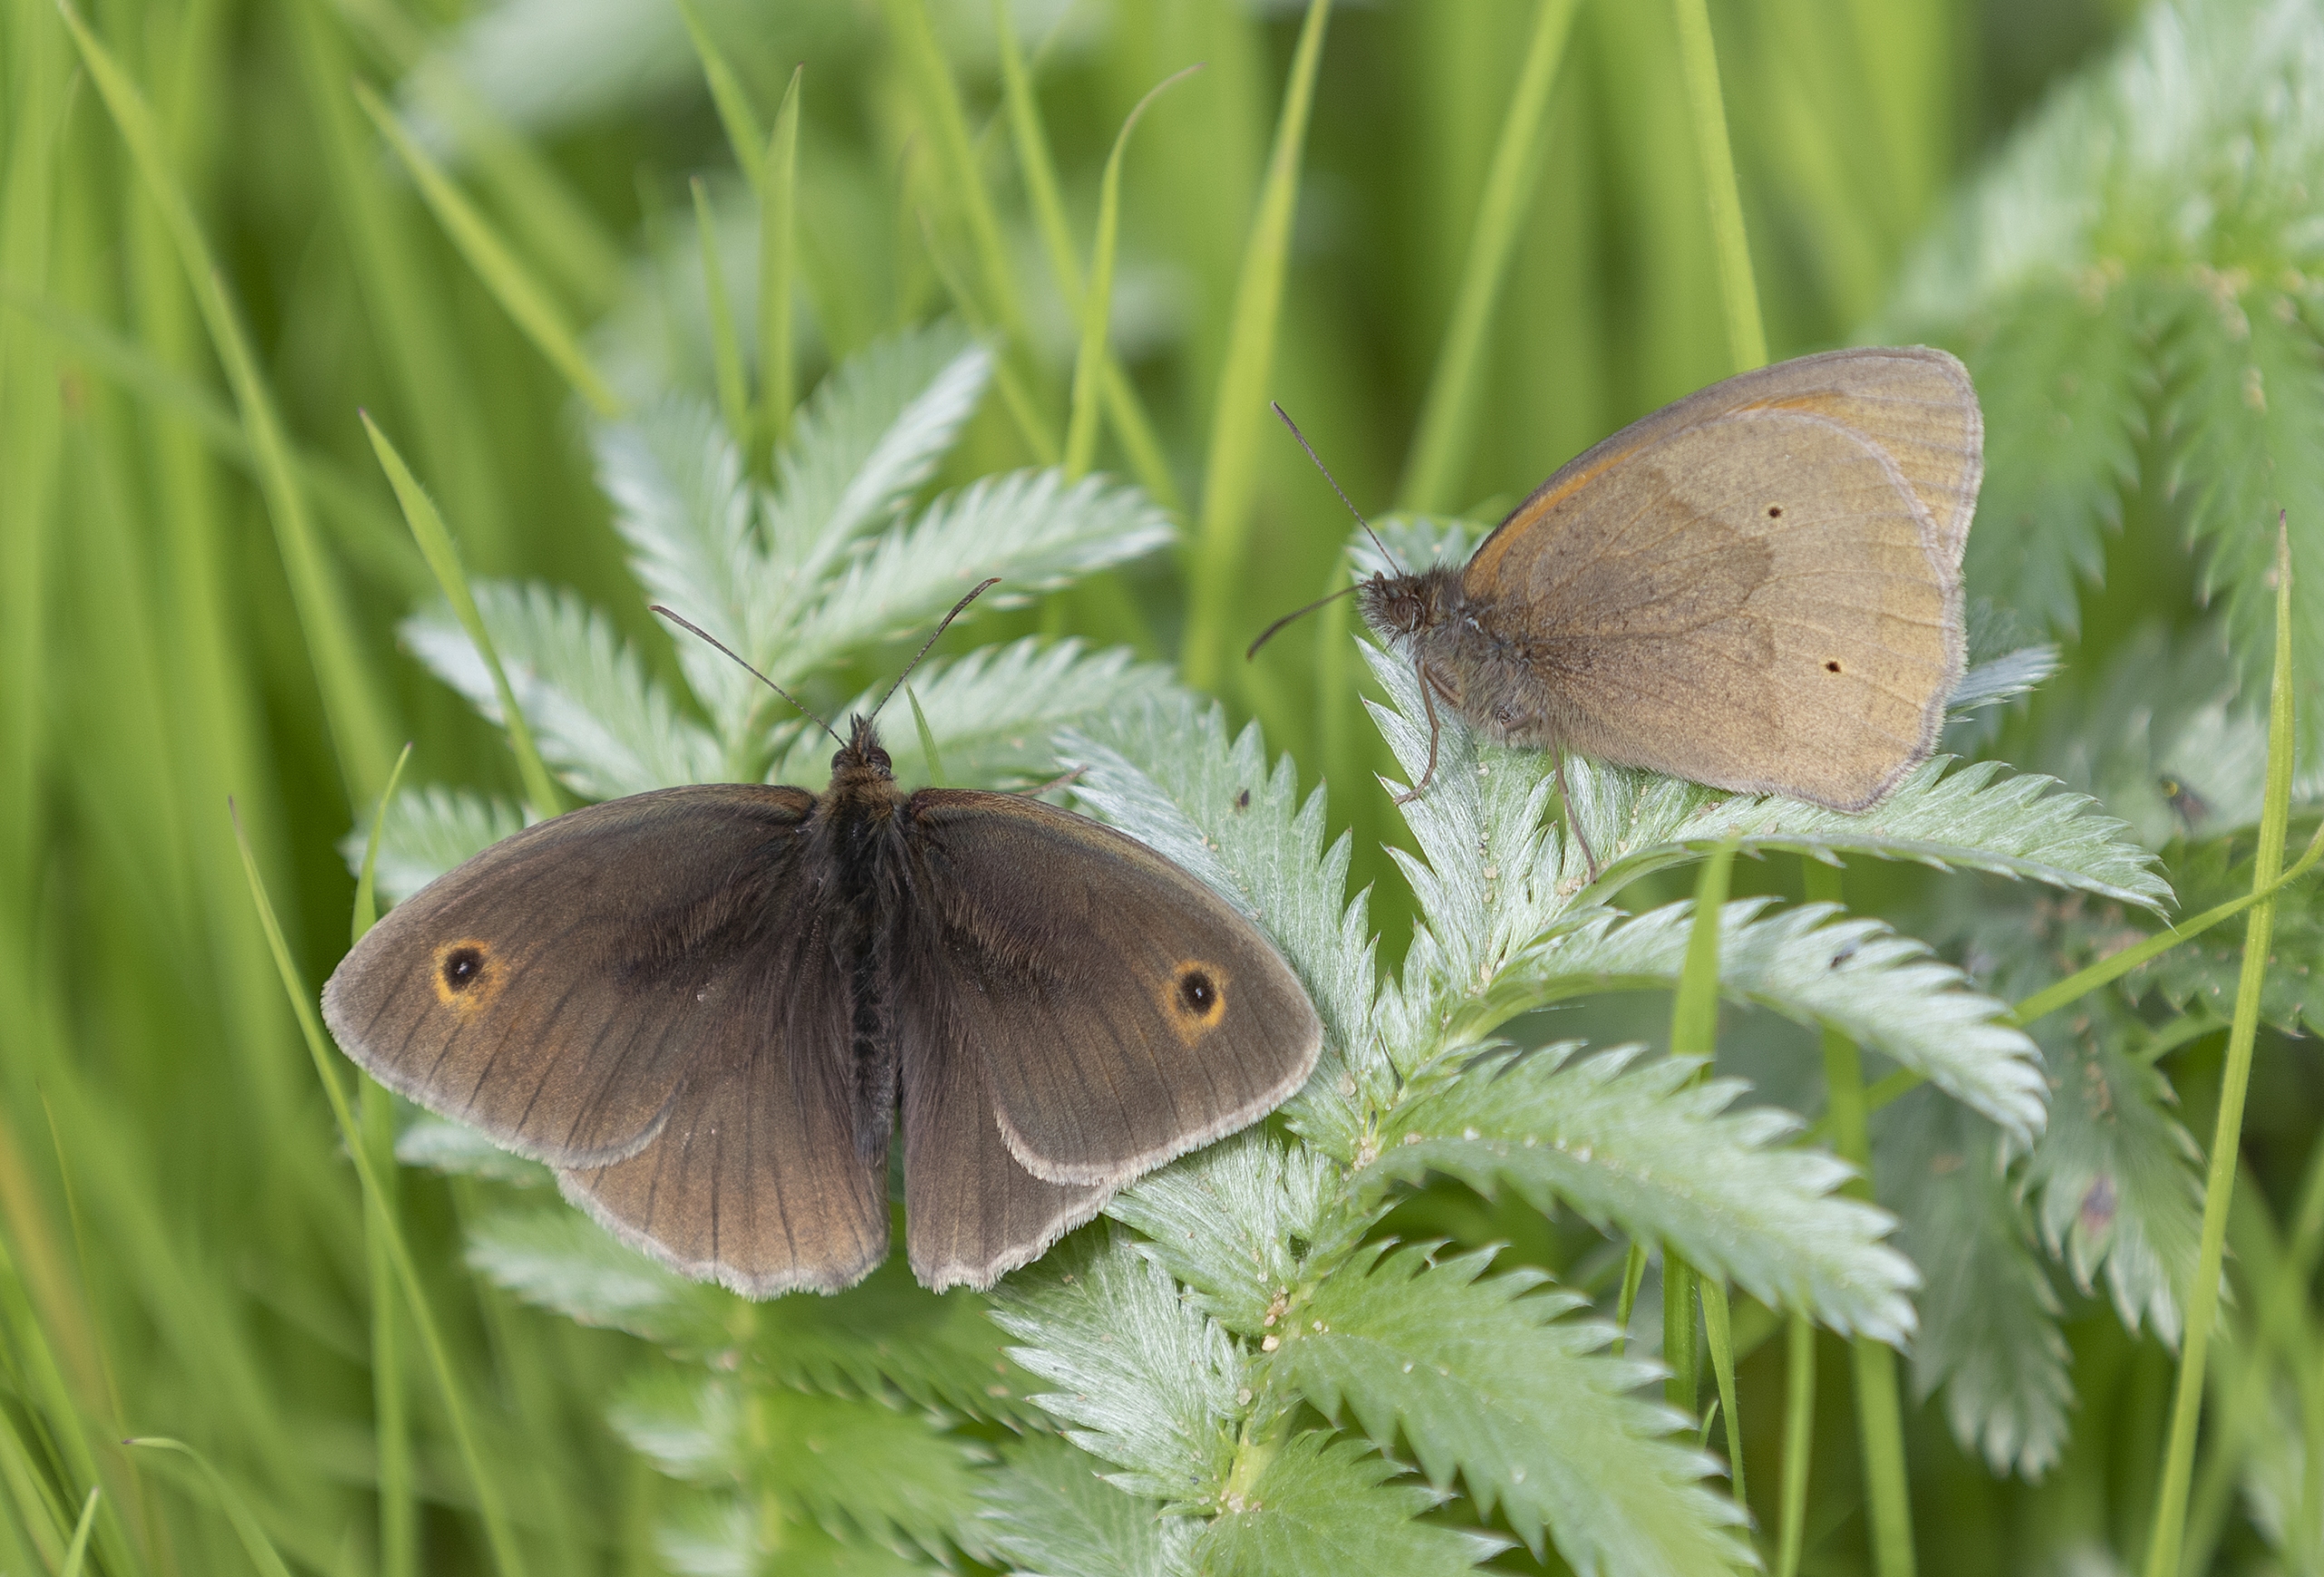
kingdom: Animalia
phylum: Arthropoda
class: Insecta
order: Lepidoptera
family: Nymphalidae
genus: Maniola
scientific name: Maniola jurtina
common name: Græsrandøje
